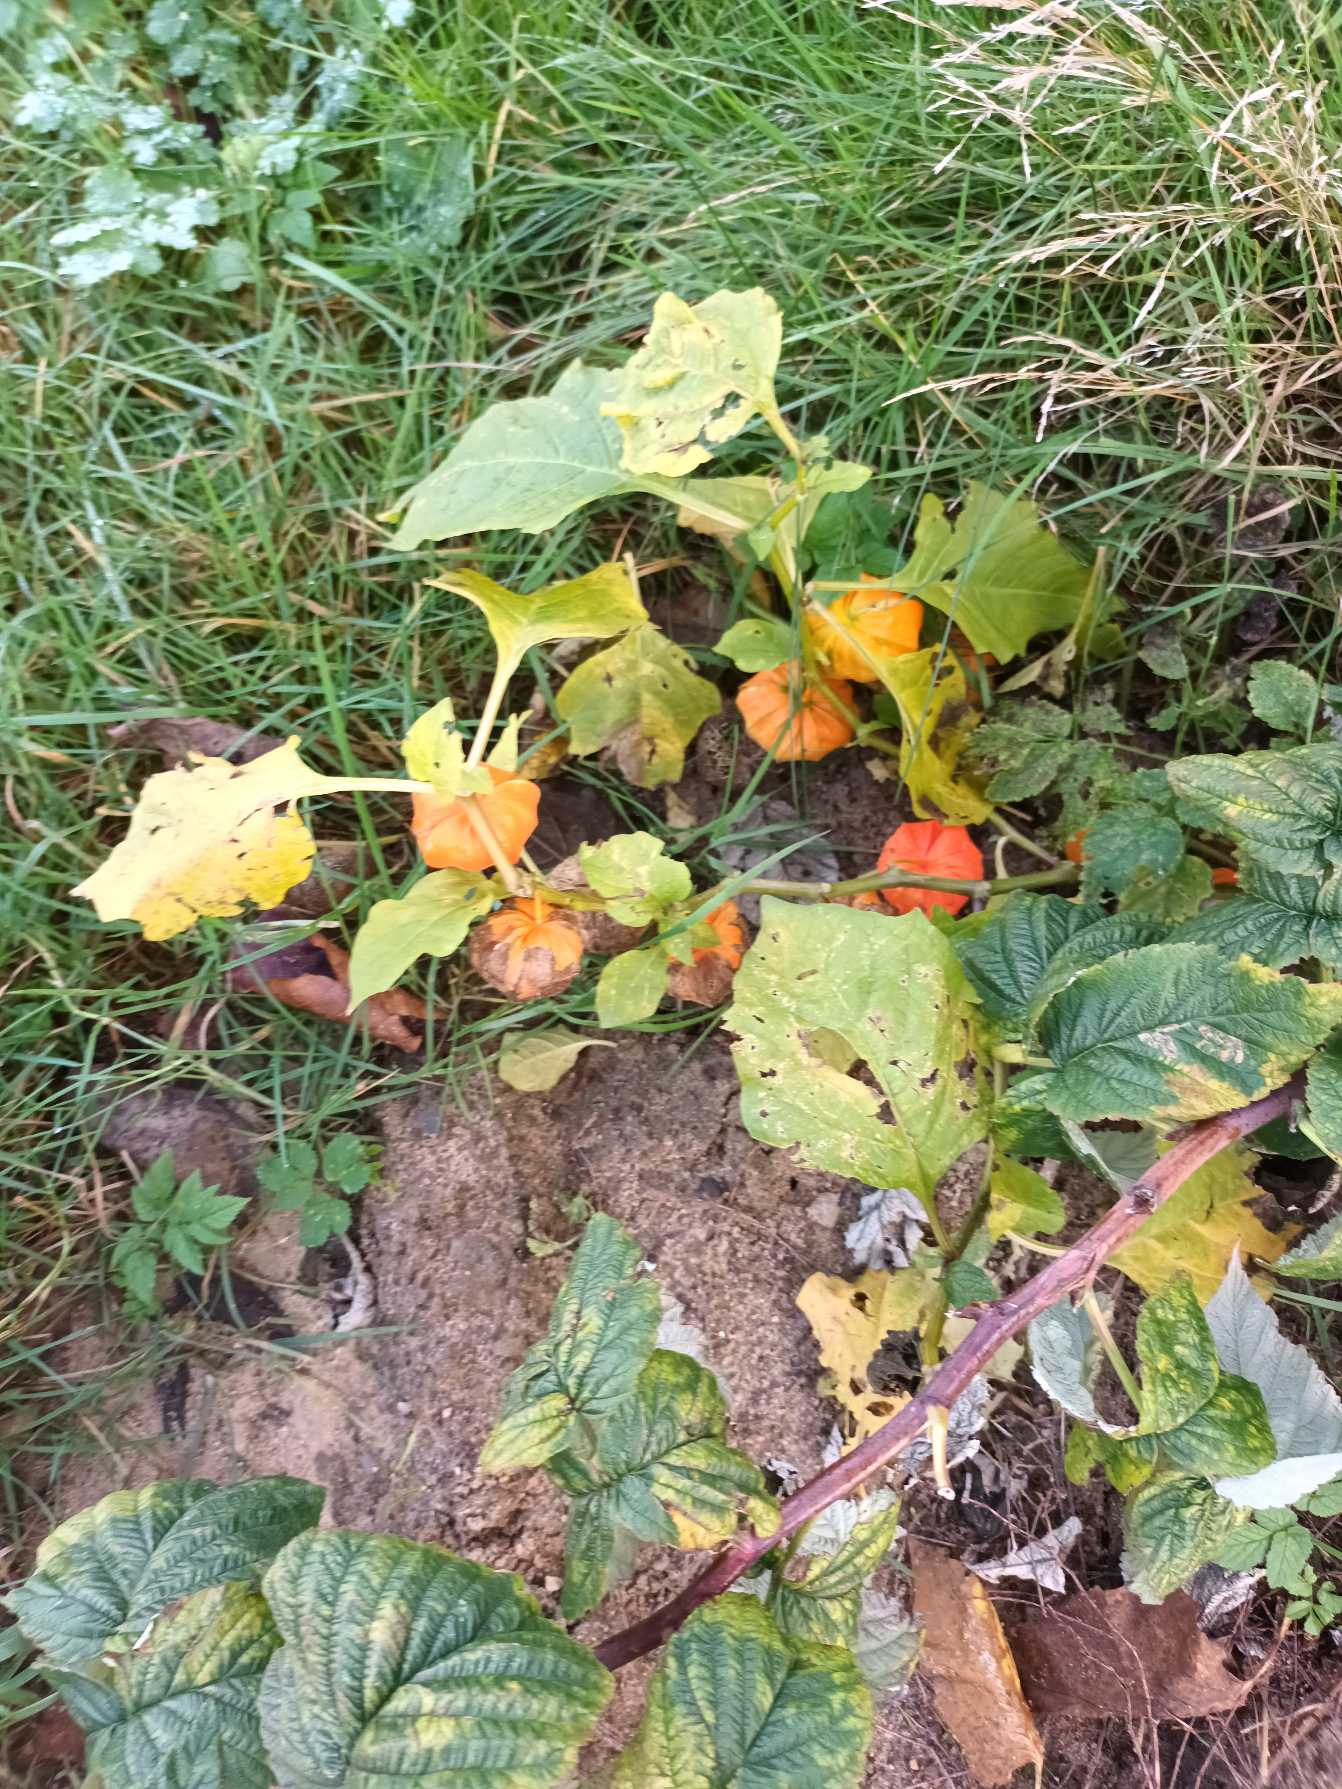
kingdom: Plantae
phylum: Tracheophyta
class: Magnoliopsida
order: Solanales
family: Solanaceae
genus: Alkekengi
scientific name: Alkekengi officinarum
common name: Jødekirsebær
